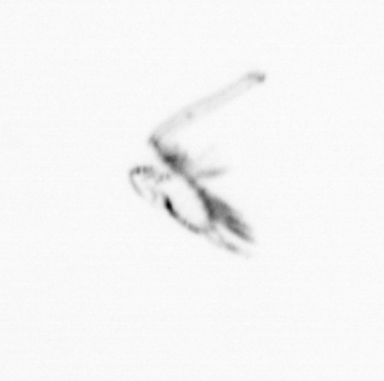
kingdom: Animalia
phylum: Arthropoda
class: Maxillopoda
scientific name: Maxillopoda
